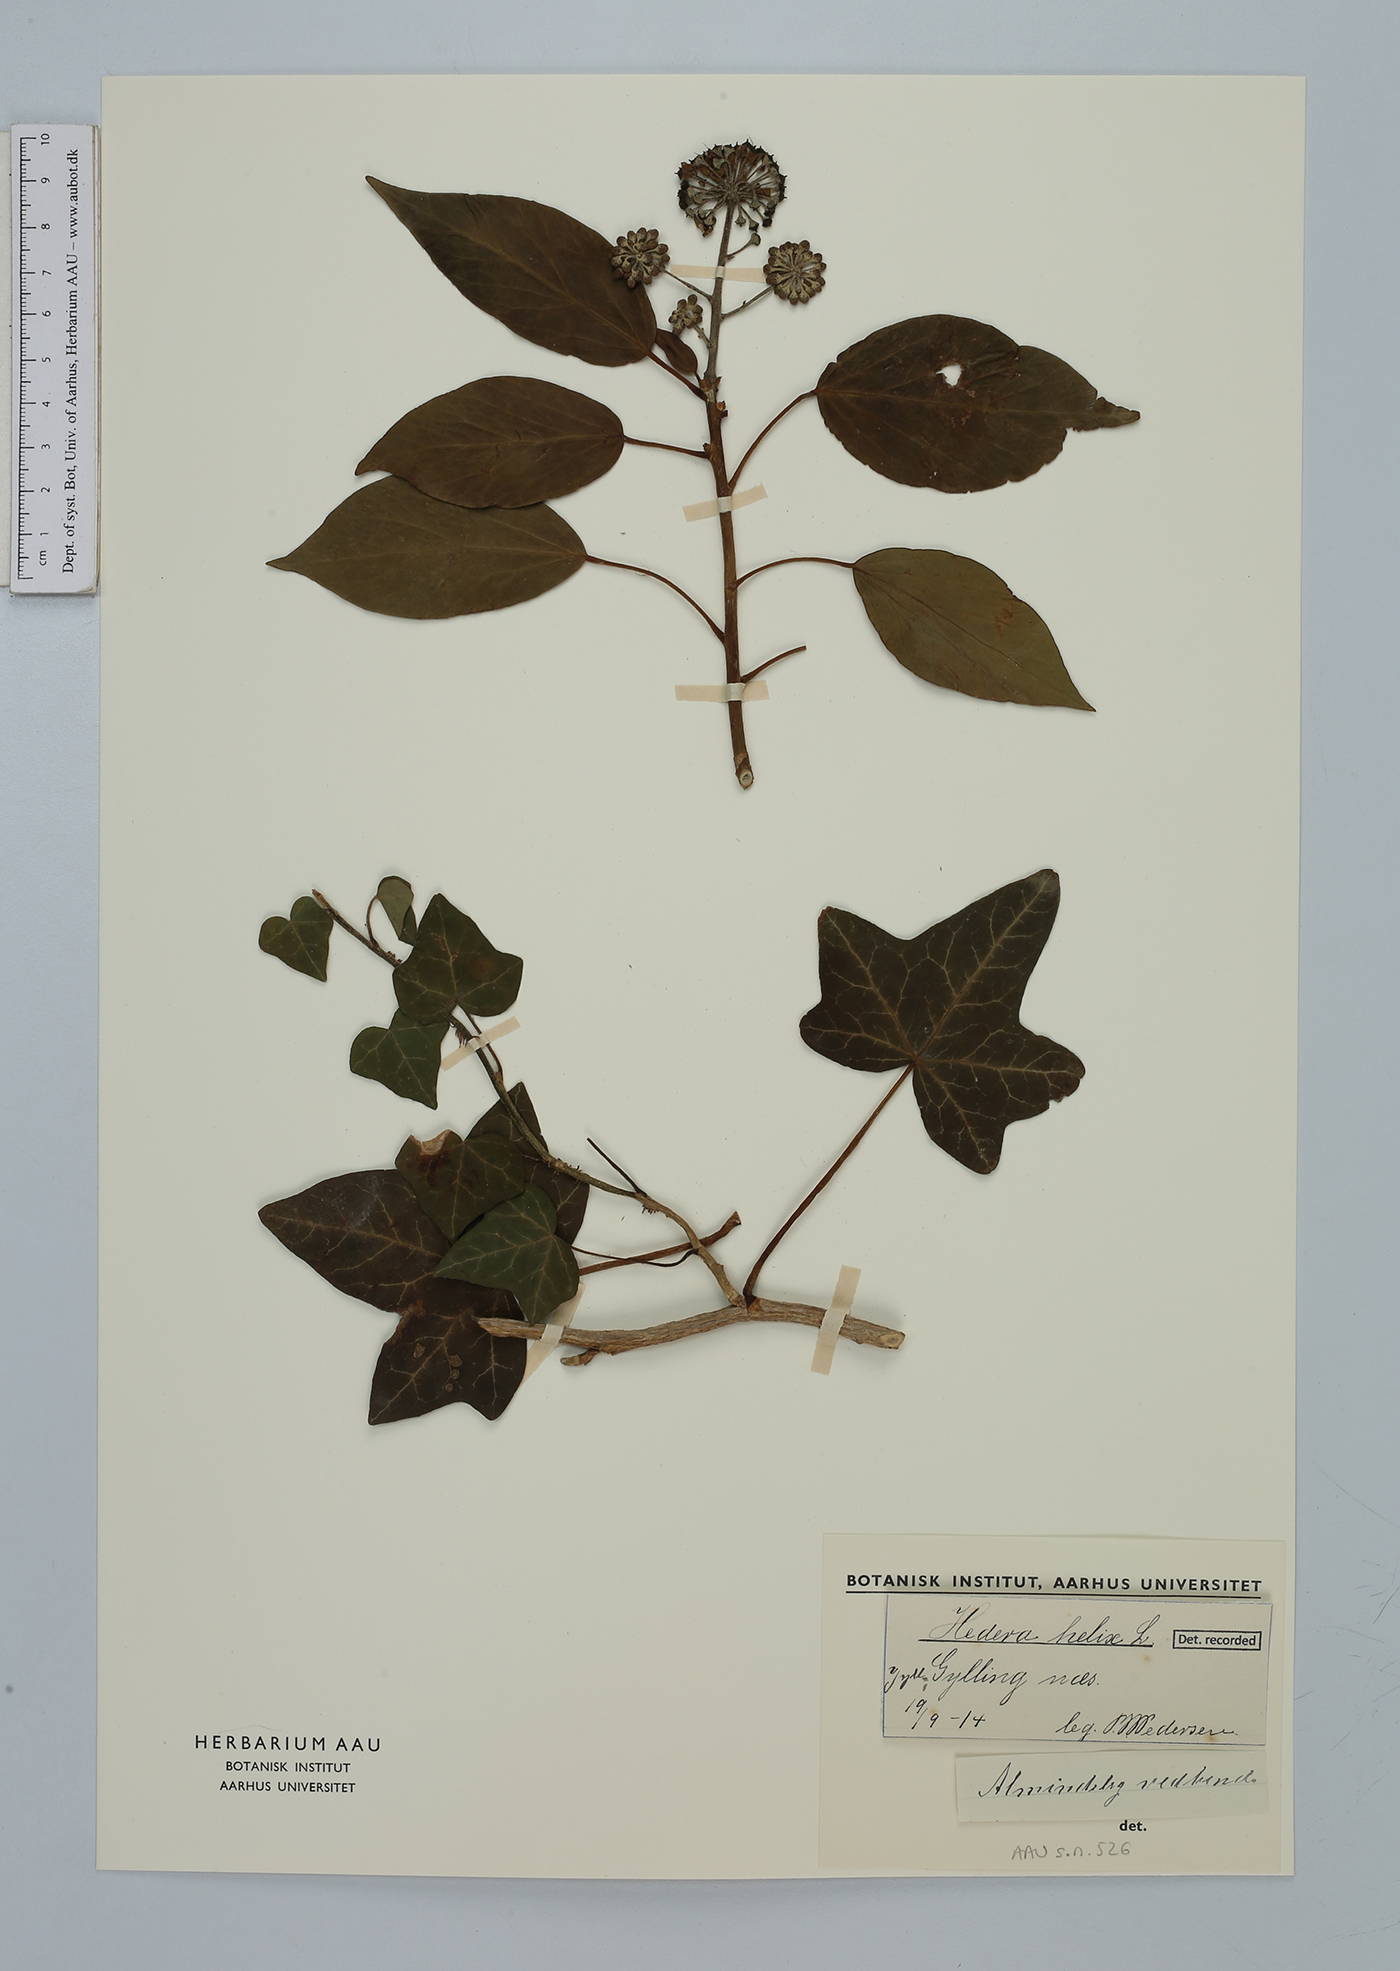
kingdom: Plantae
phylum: Tracheophyta
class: Magnoliopsida
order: Apiales
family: Araliaceae
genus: Hedera
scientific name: Hedera helix
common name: Ivy
